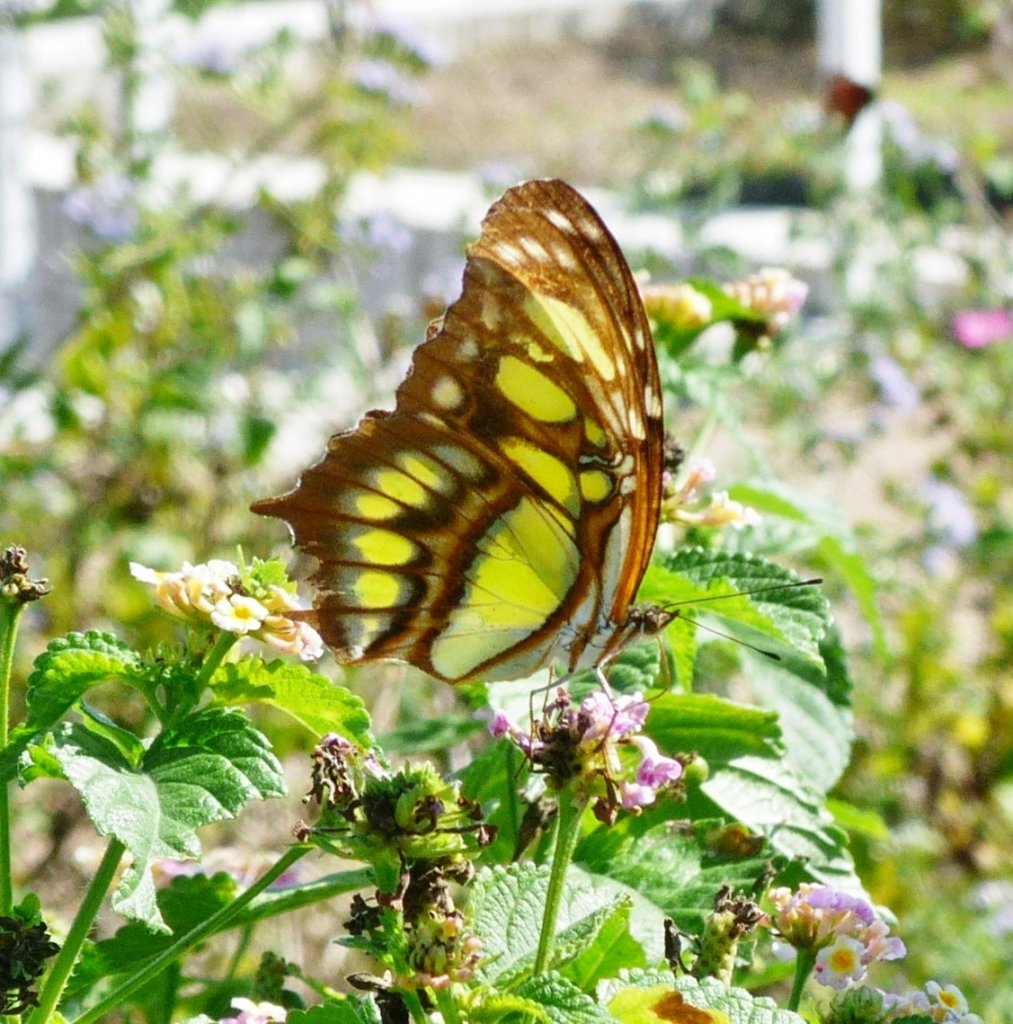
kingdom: Animalia
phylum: Arthropoda
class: Insecta
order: Lepidoptera
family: Nymphalidae
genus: Siproeta
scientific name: Siproeta stelenes
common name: Malachite
